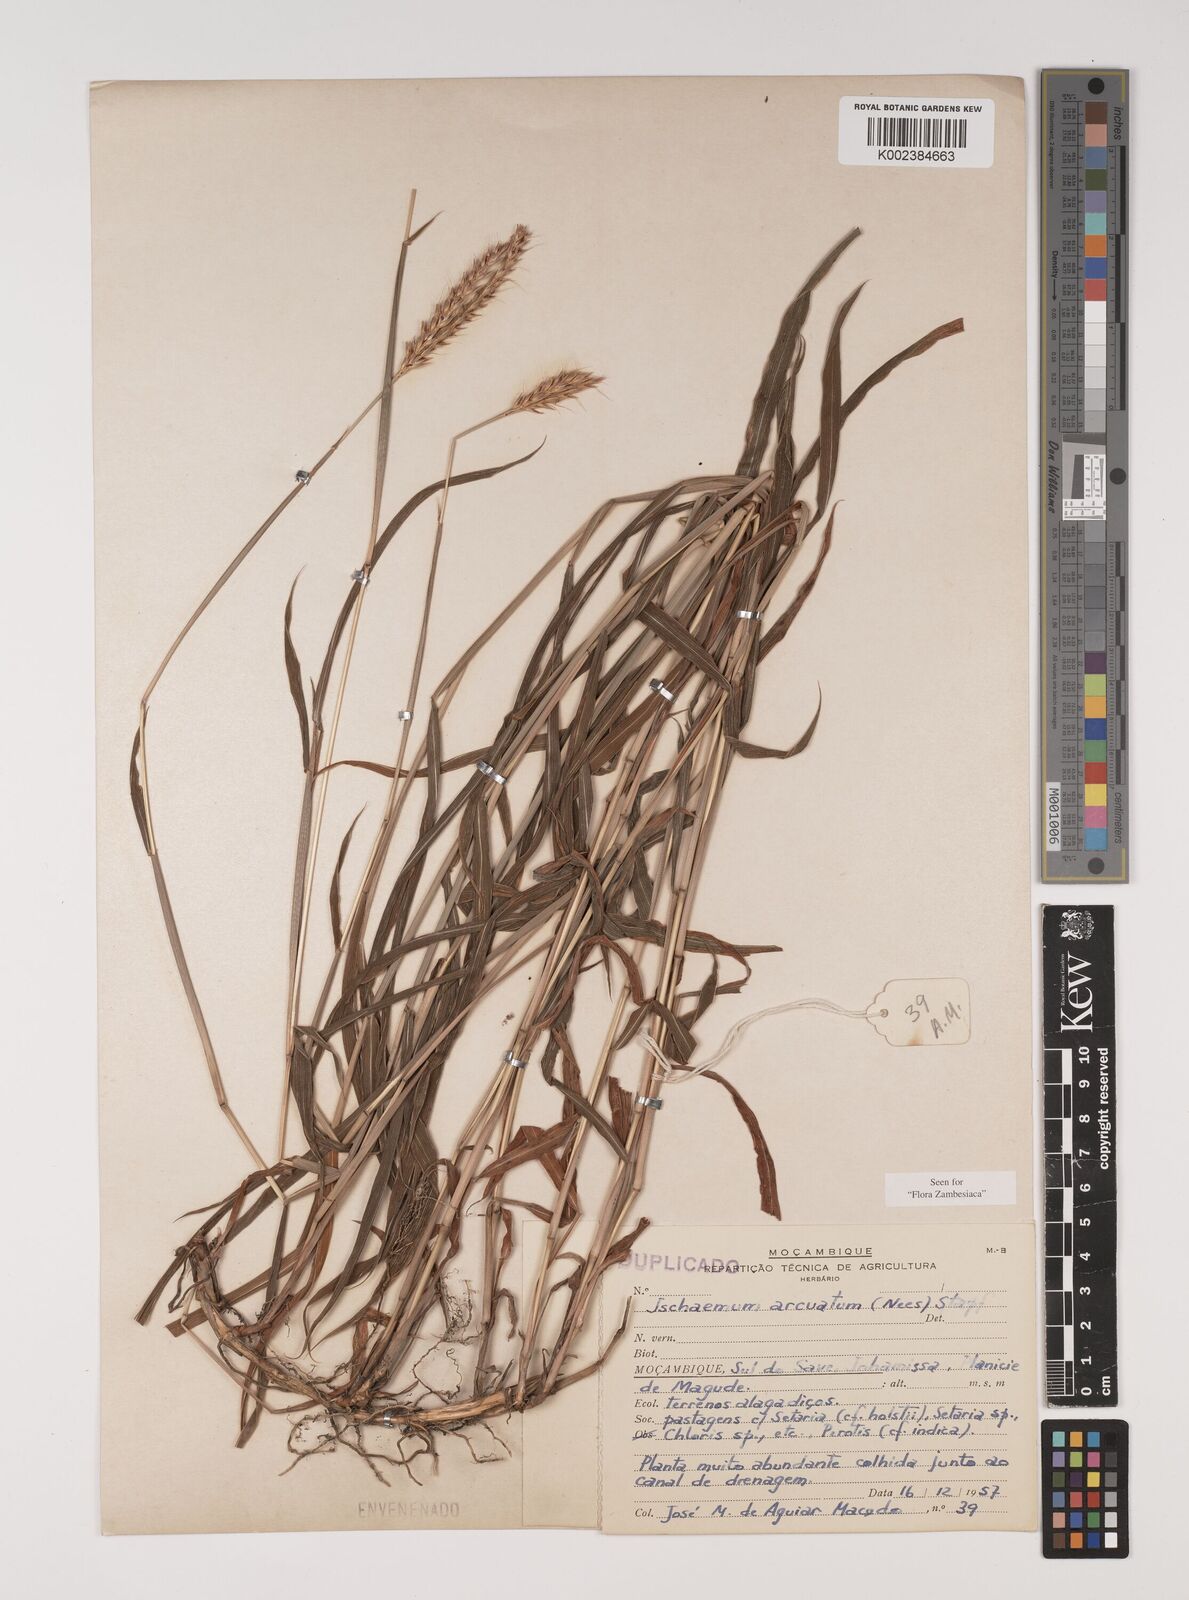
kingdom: Plantae
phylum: Tracheophyta
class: Liliopsida
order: Poales
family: Poaceae
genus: Ischaemum
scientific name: Ischaemum
